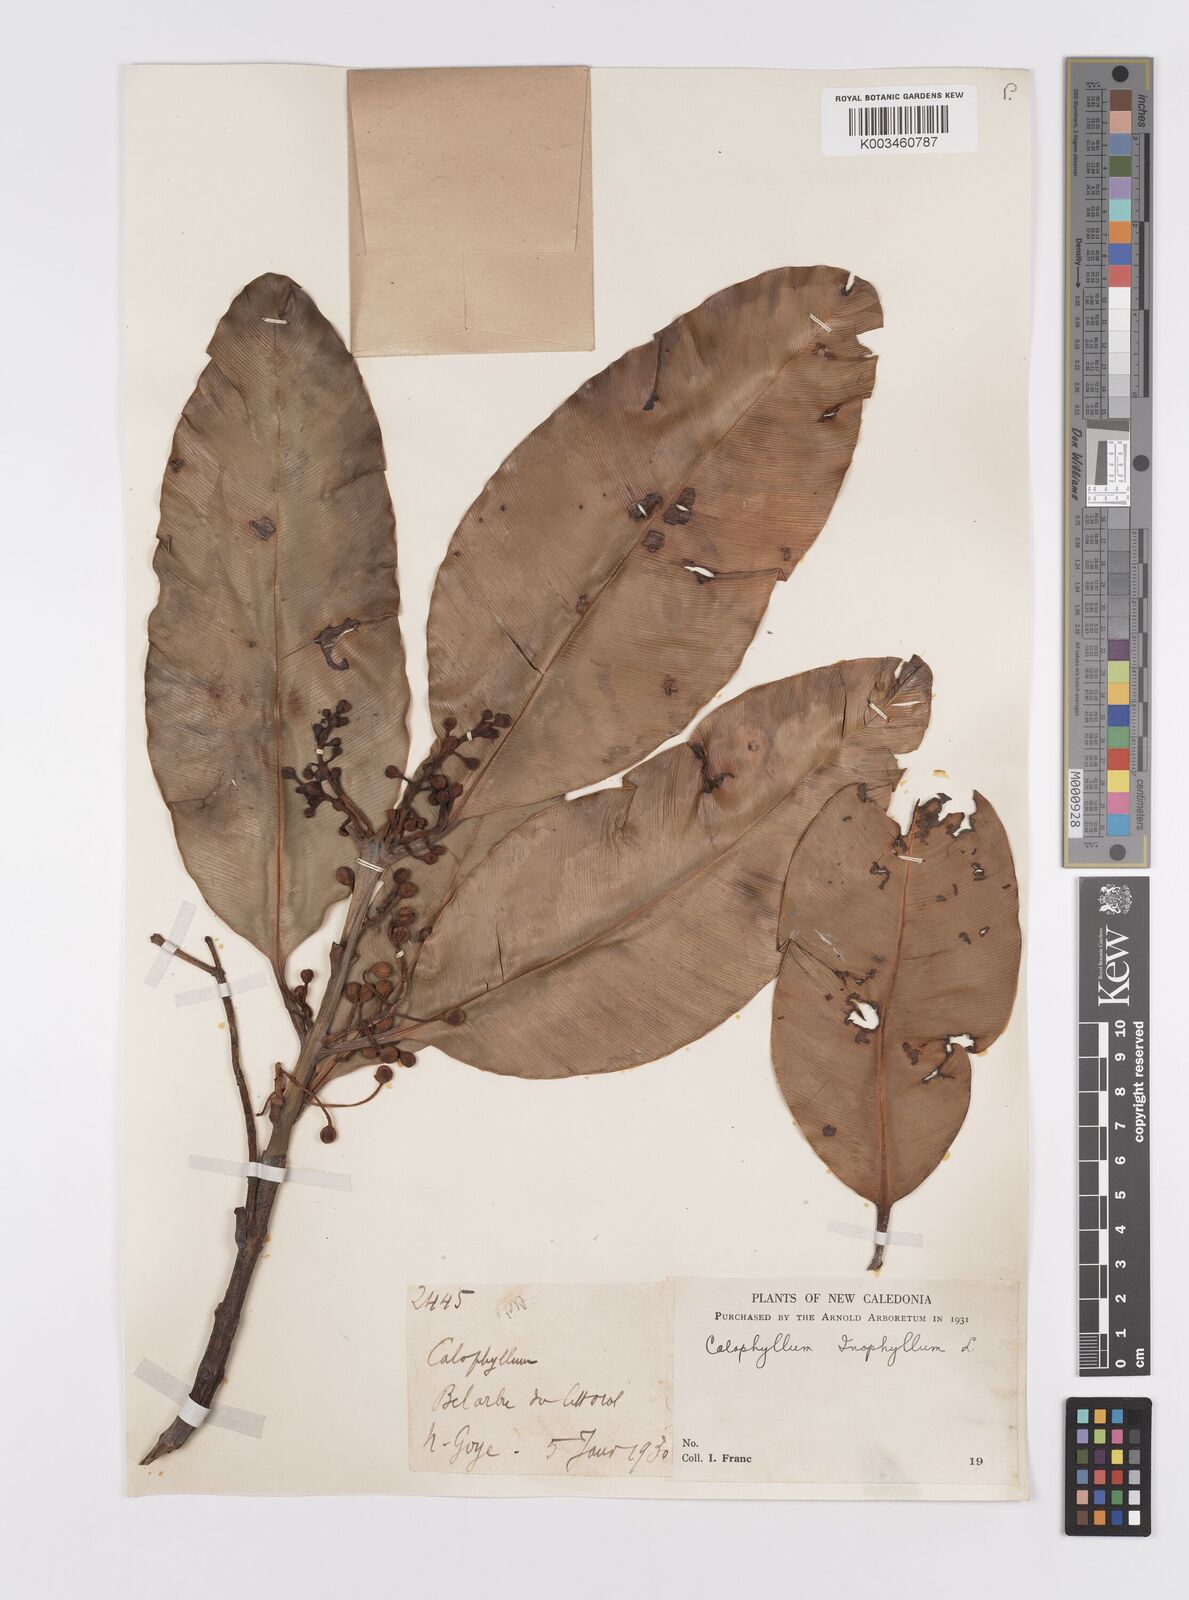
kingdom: Plantae
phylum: Tracheophyta
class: Magnoliopsida
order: Malpighiales
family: Calophyllaceae
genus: Calophyllum
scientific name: Calophyllum inophyllum
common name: Alexandrian laurel
